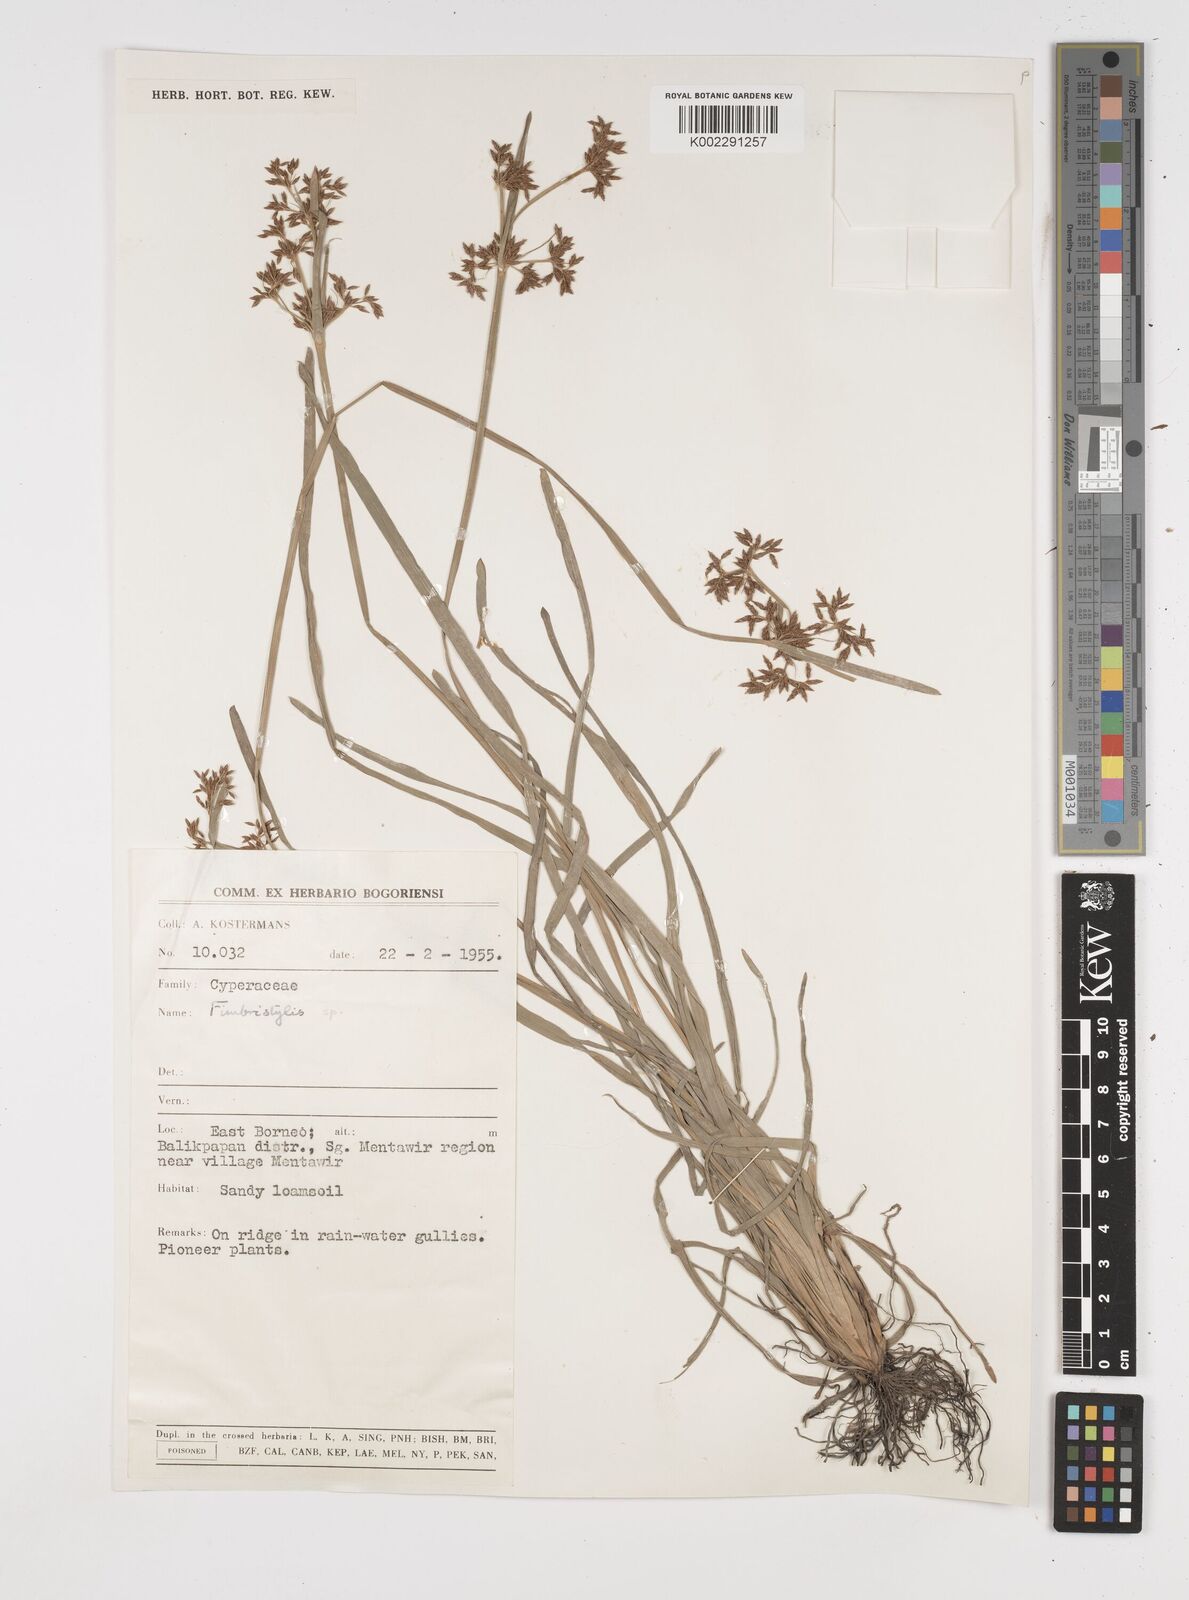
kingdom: Plantae
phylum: Tracheophyta
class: Liliopsida
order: Poales
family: Cyperaceae
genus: Fimbristylis
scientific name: Fimbristylis
